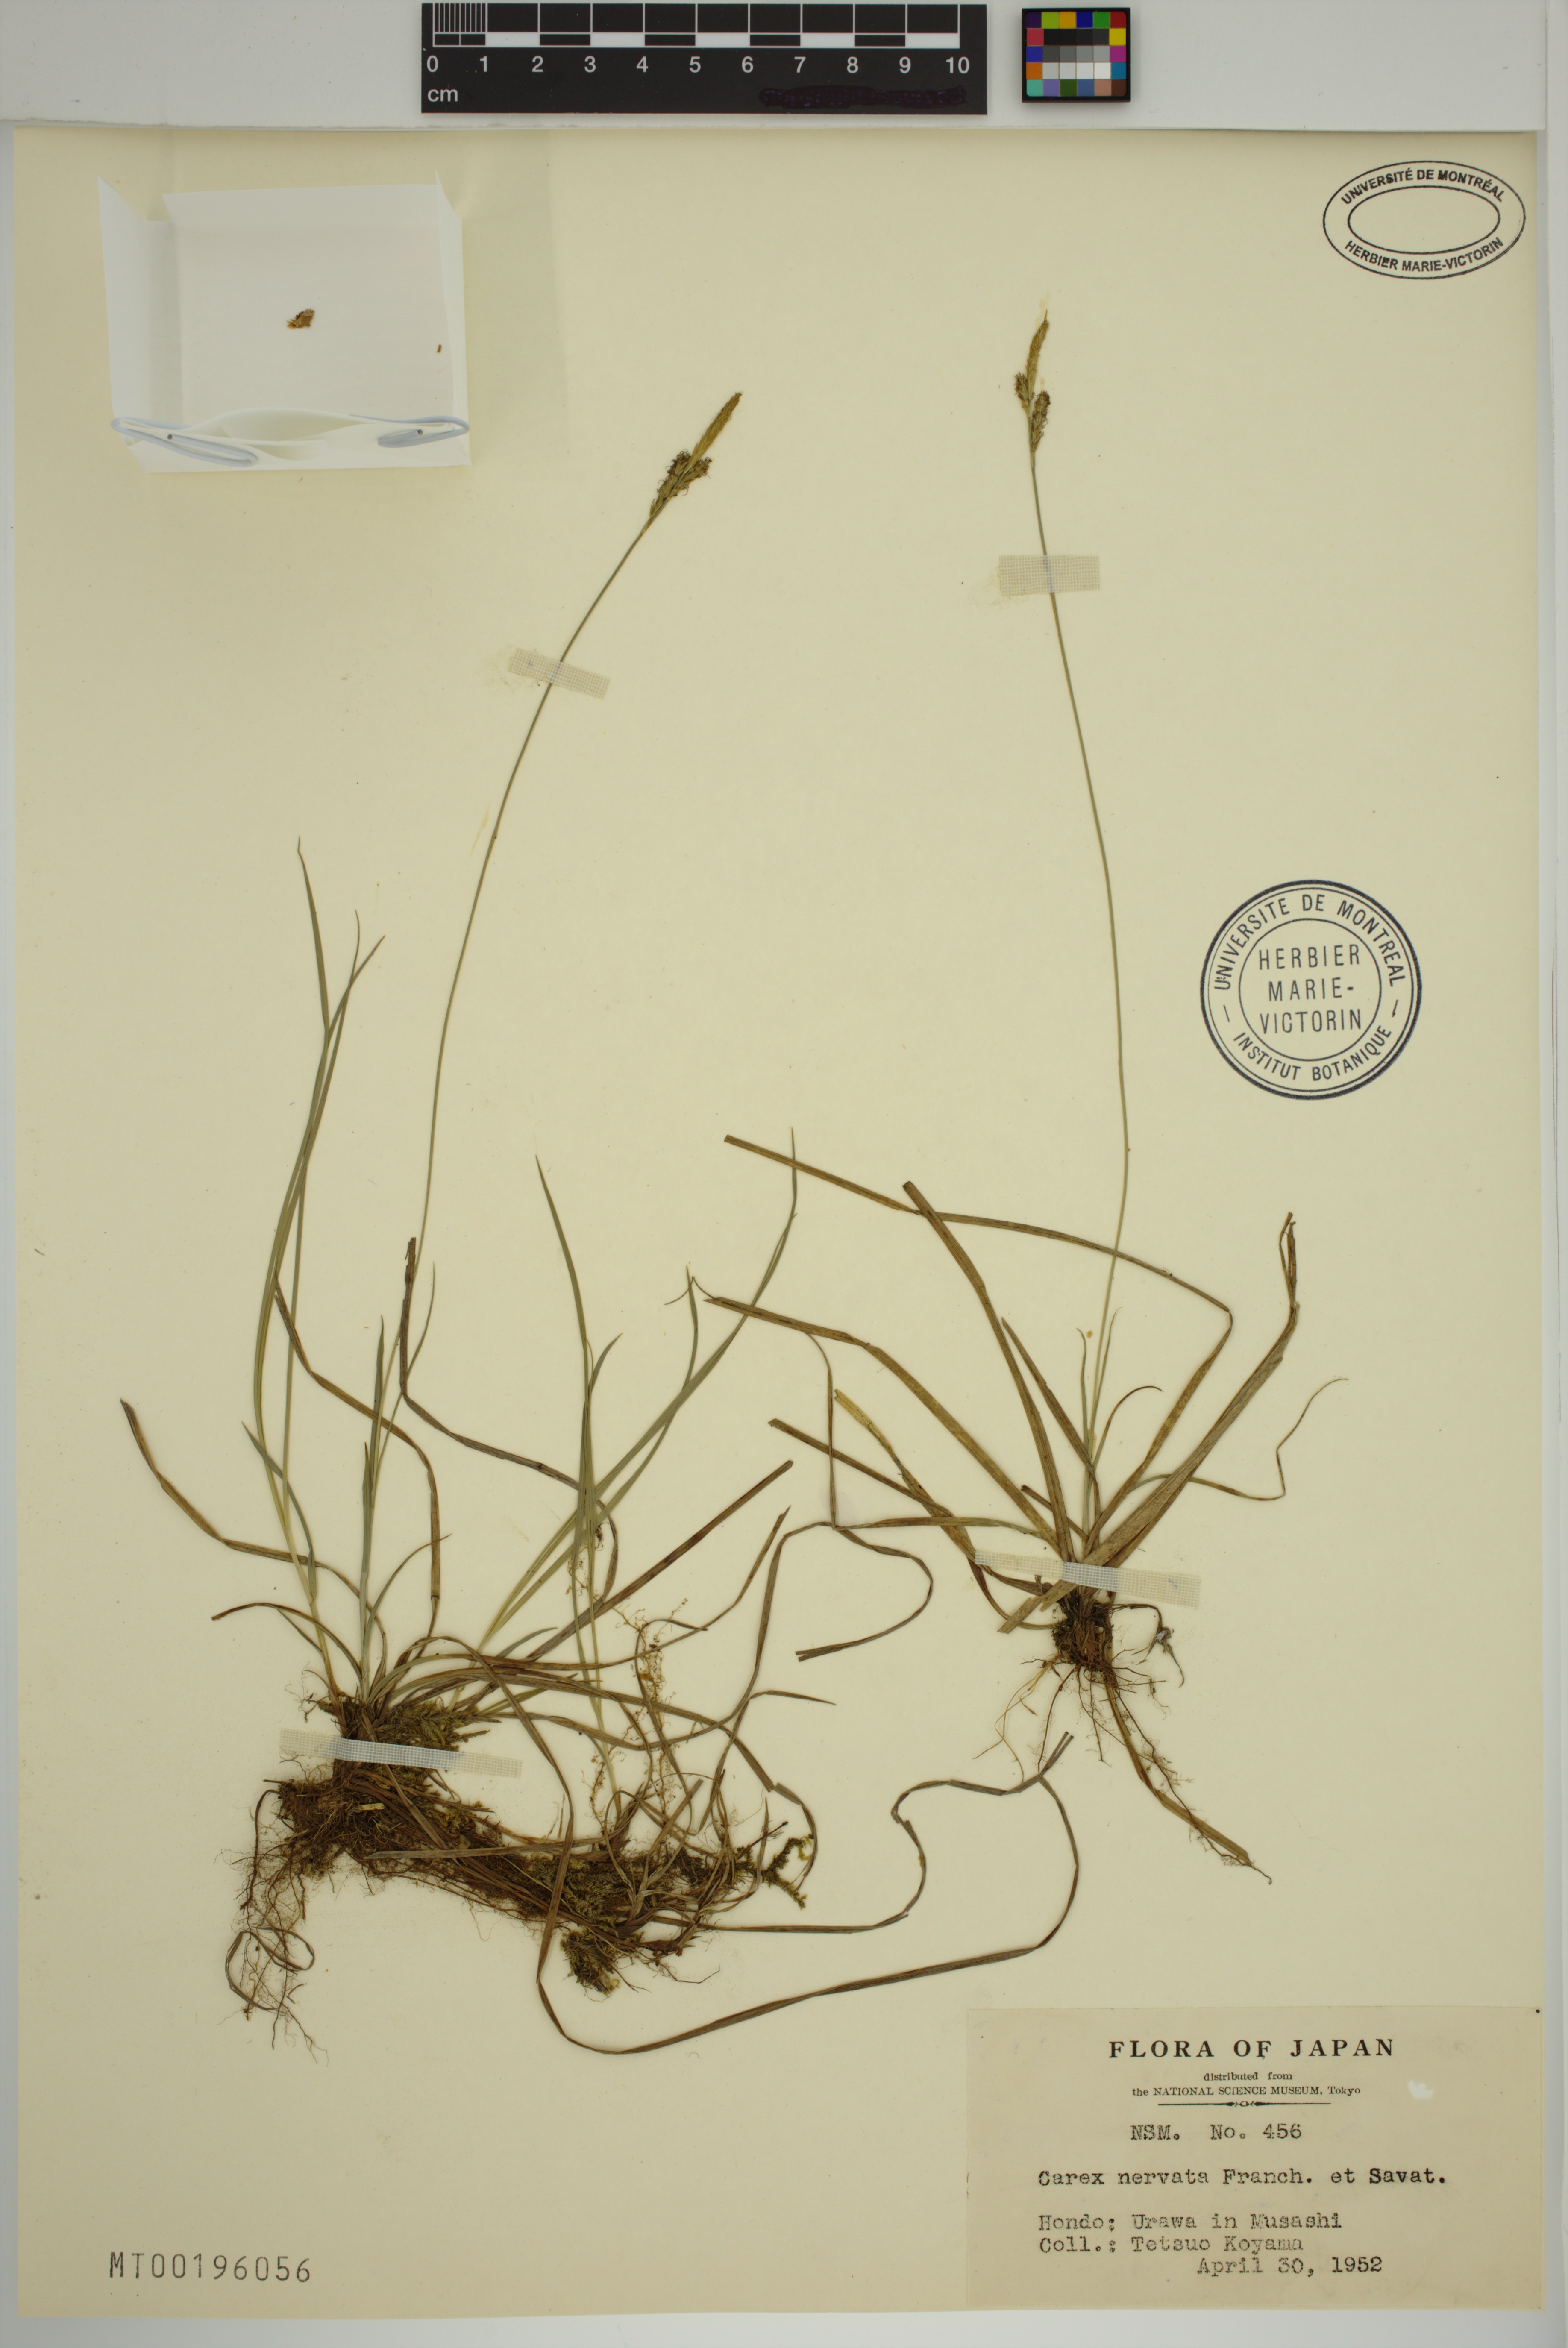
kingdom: Plantae
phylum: Tracheophyta
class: Liliopsida
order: Poales
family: Cyperaceae
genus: Carex
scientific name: Carex nervata
